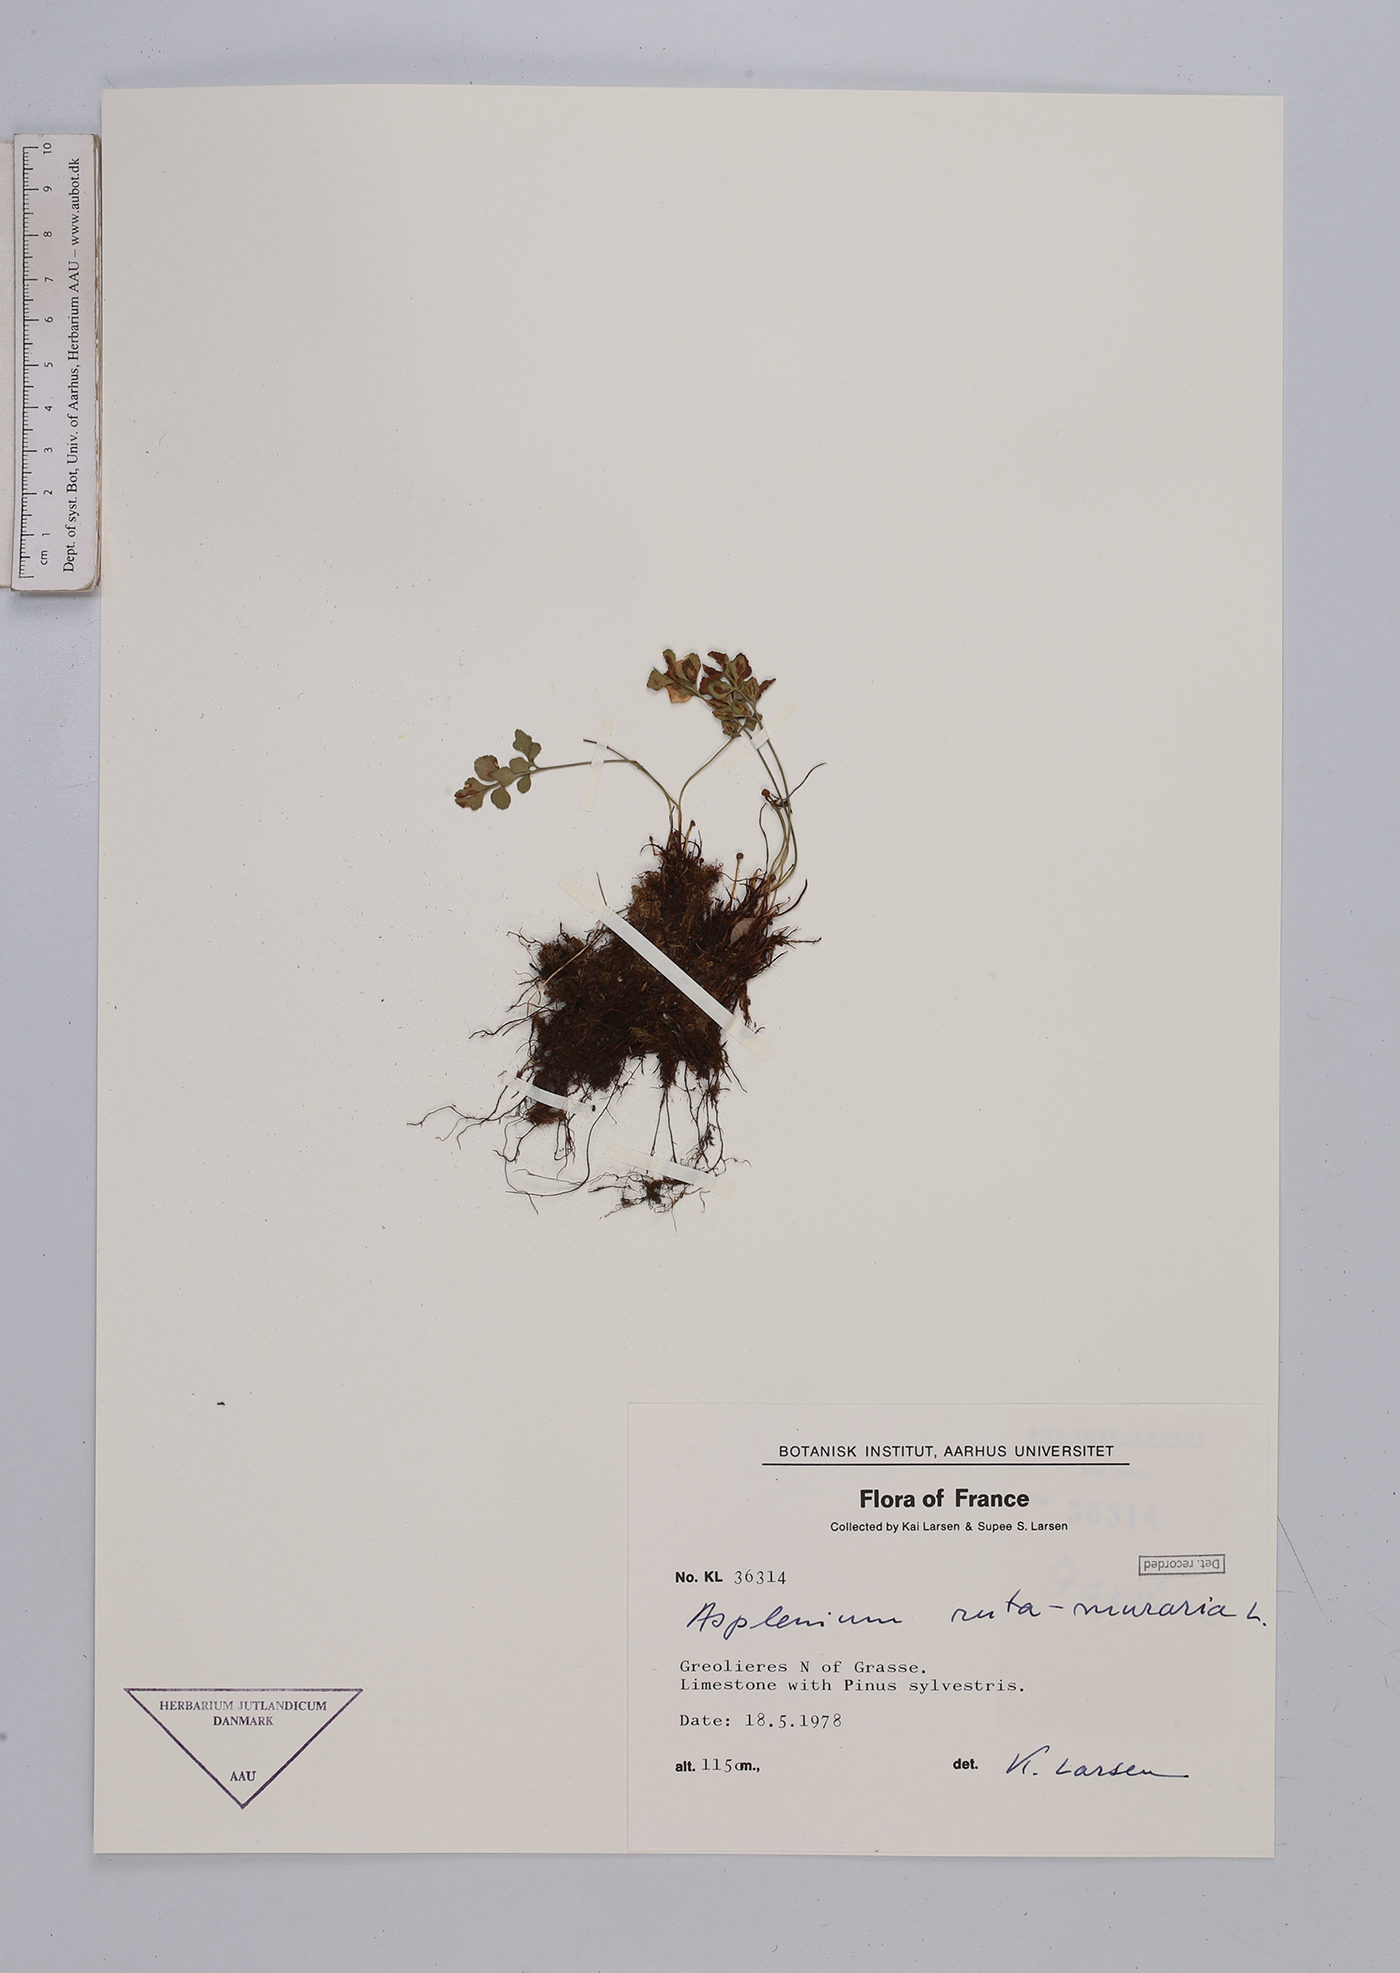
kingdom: Plantae
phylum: Tracheophyta
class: Polypodiopsida
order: Polypodiales
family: Aspleniaceae
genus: Asplenium
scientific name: Asplenium ruta-muraria
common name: Wall-rue
